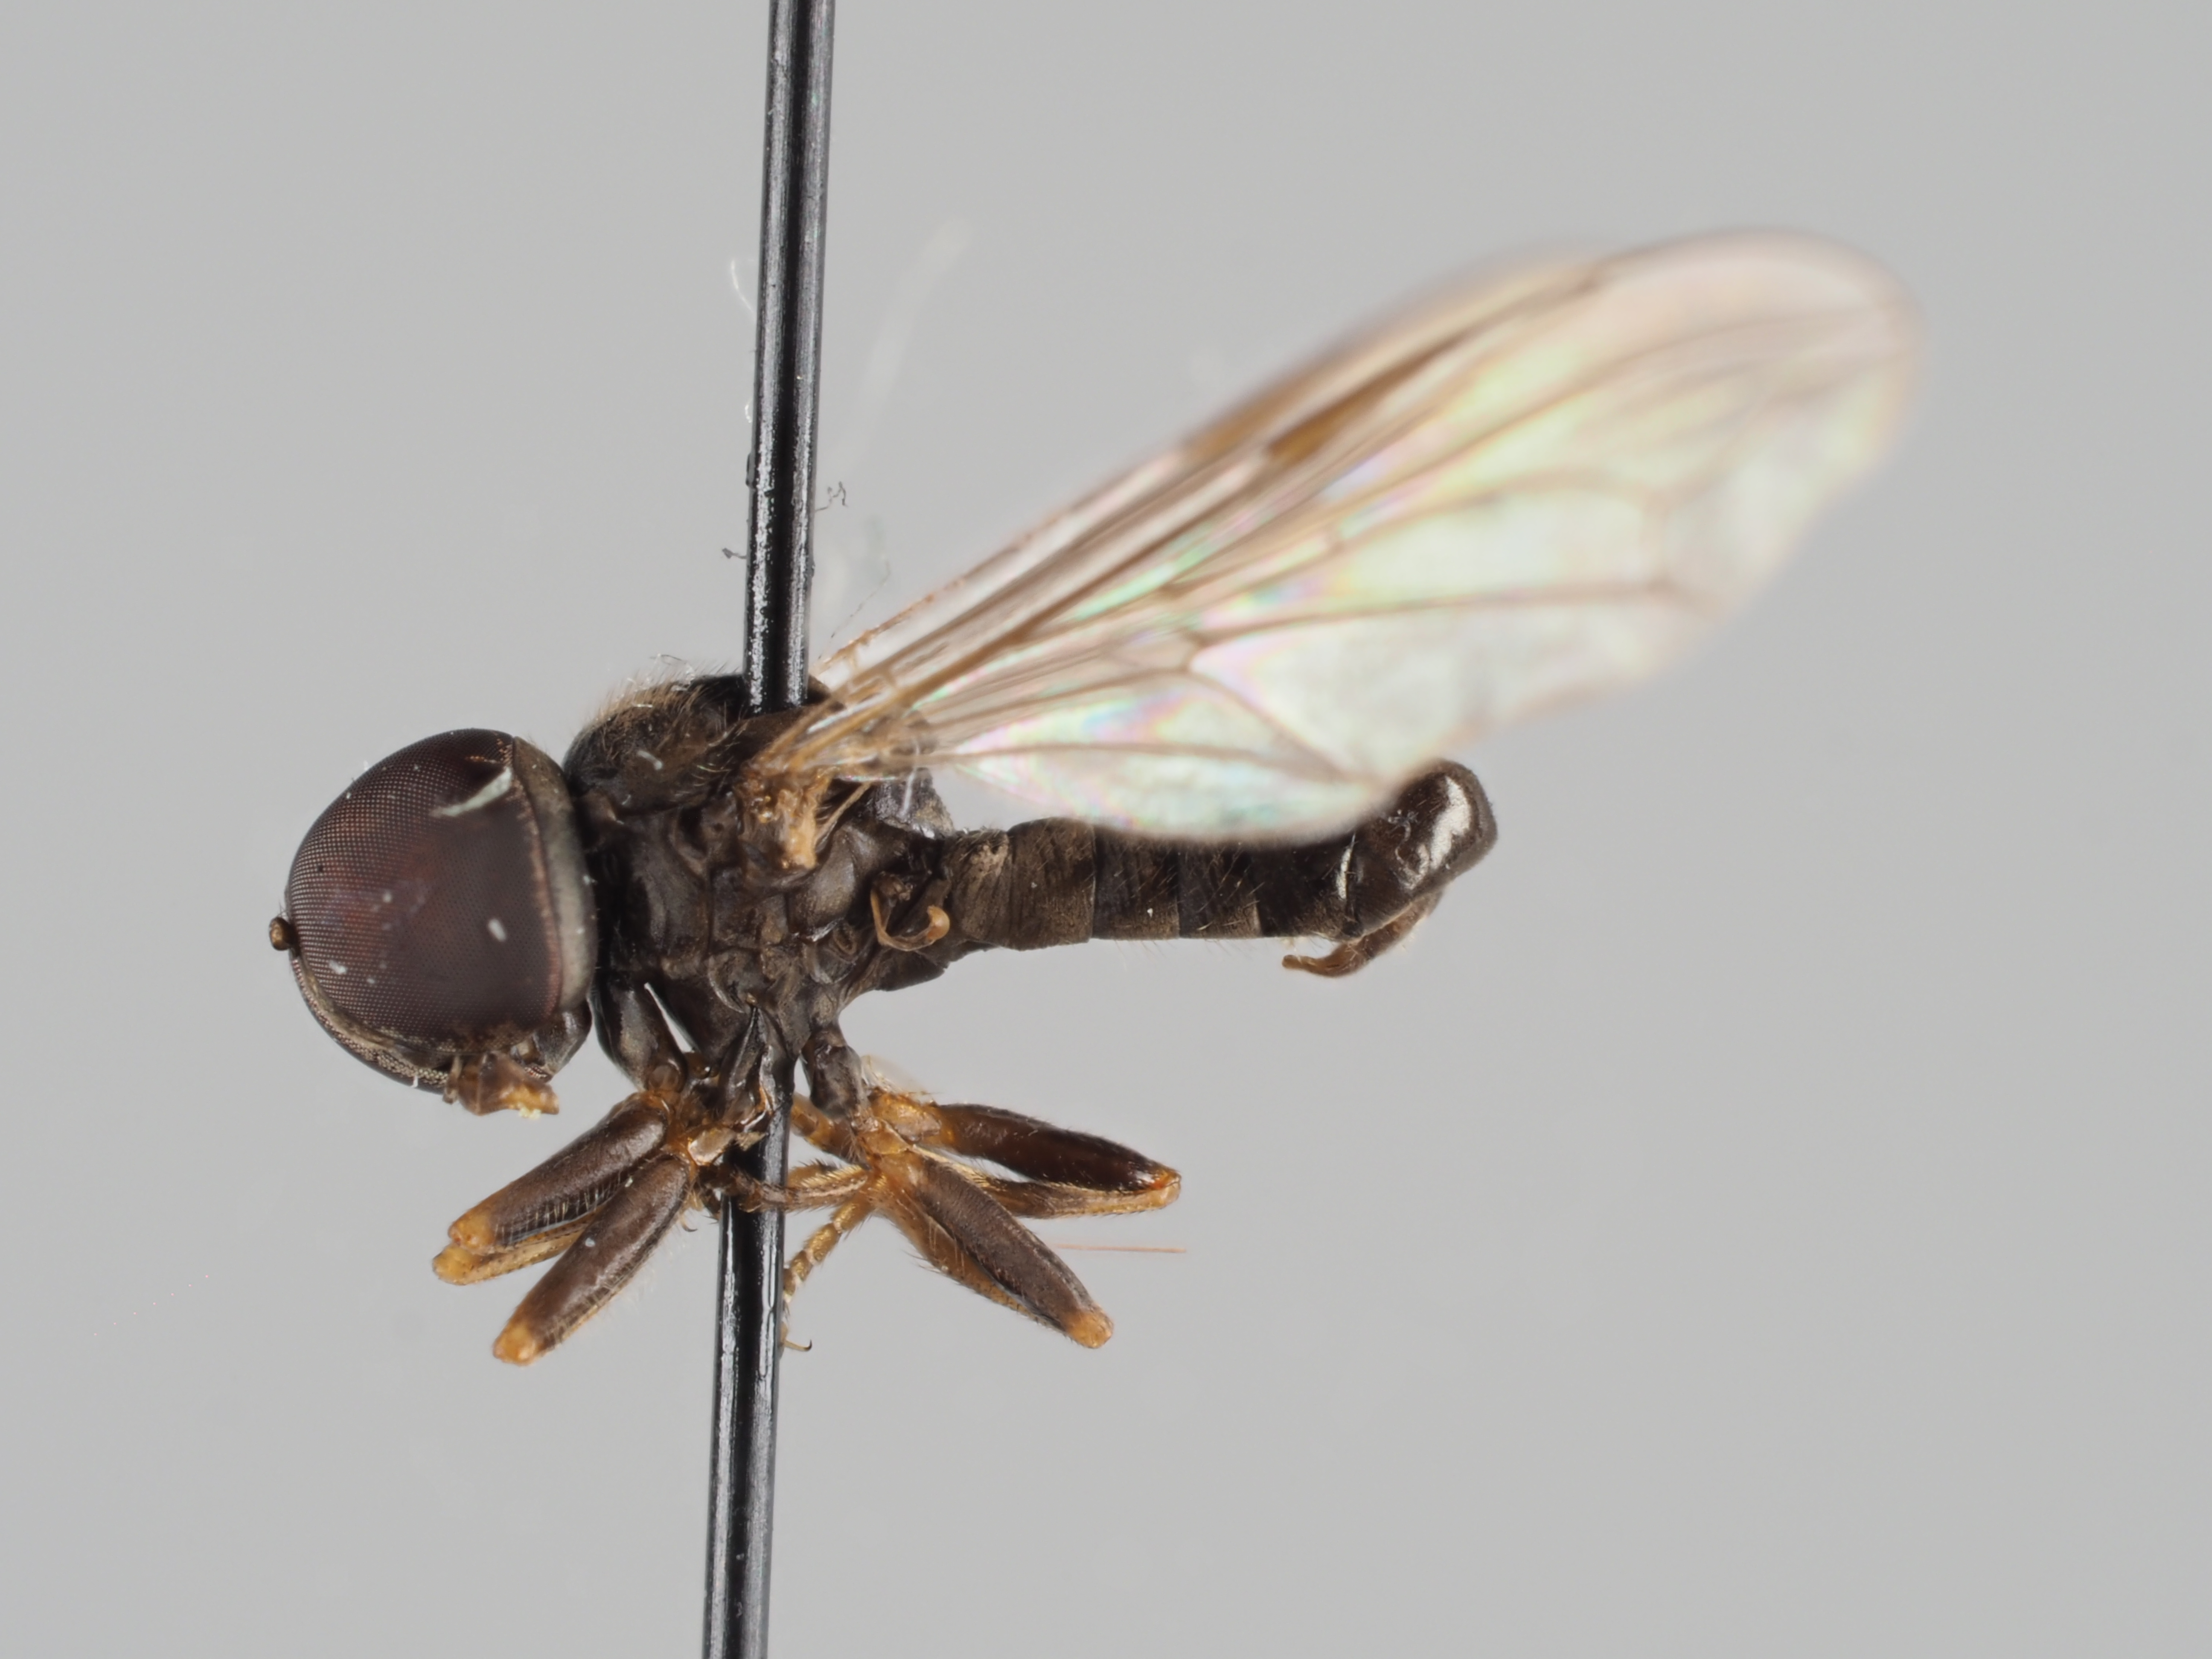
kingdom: Animalia
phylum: Arthropoda
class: Insecta
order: Diptera
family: Pipunculidae
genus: Pipunculus
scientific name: Pipunculus omissinervis
